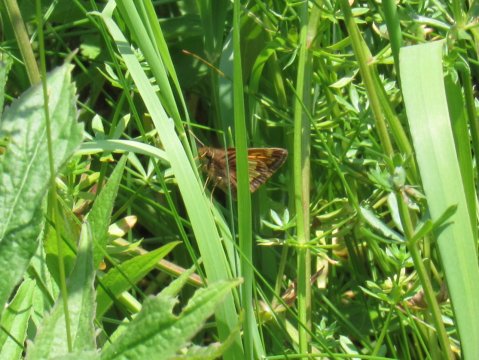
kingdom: Animalia
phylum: Arthropoda
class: Insecta
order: Lepidoptera
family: Hesperiidae
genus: Lon
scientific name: Lon hobomok
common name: Hobomok Skipper
